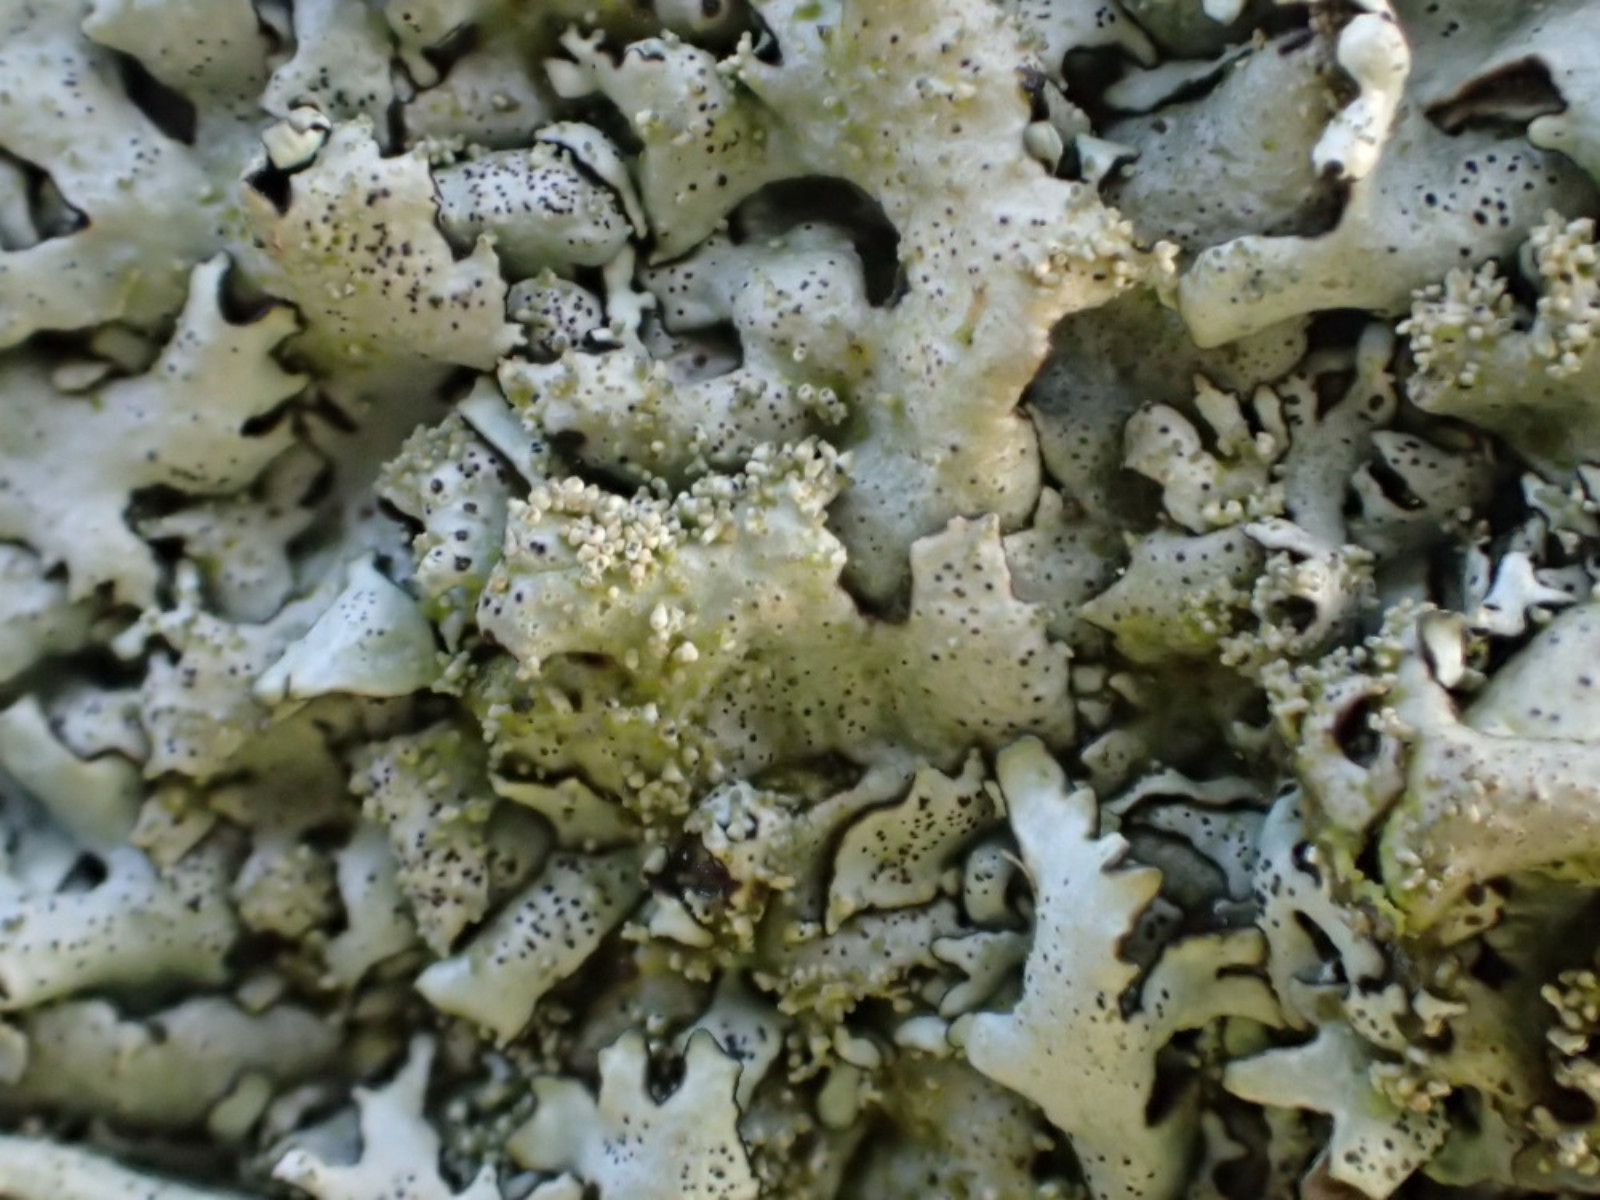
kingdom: Fungi
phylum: Ascomycota
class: Lecanoromycetes
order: Lecanorales
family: Parmeliaceae
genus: Xanthoparmelia
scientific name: Xanthoparmelia conspersa
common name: messing-skållav
